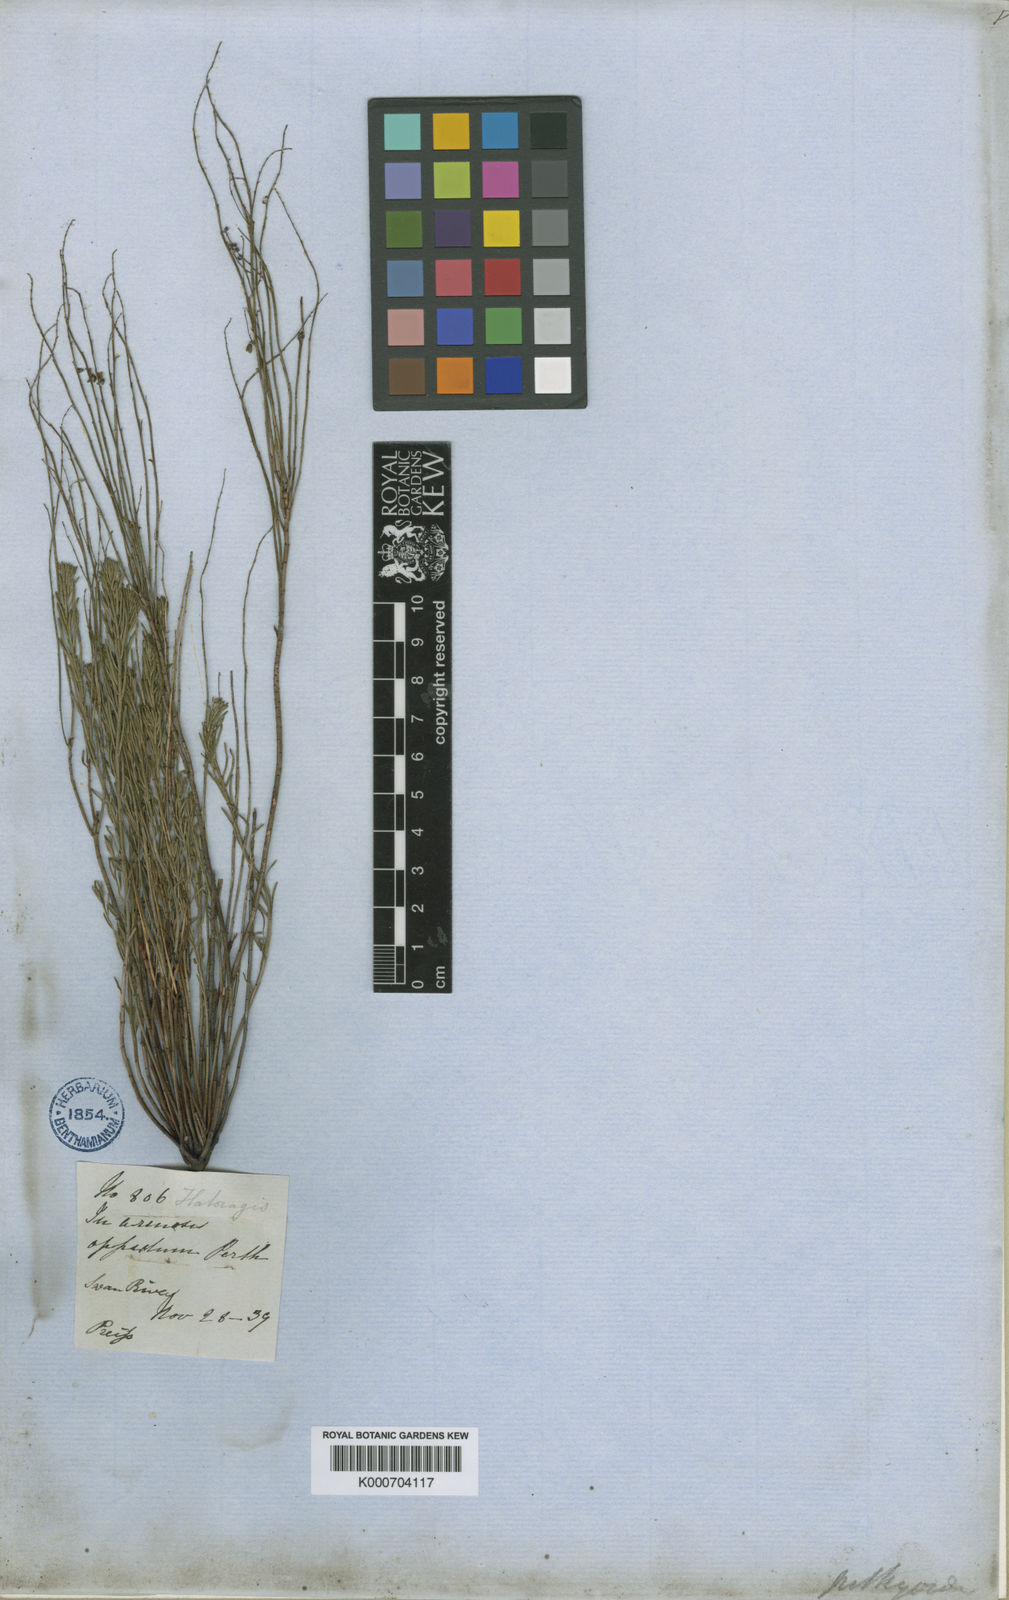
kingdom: Plantae
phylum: Tracheophyta
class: Magnoliopsida
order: Saxifragales
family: Haloragaceae
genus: Gonocarpus
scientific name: Gonocarpus pithyoides
